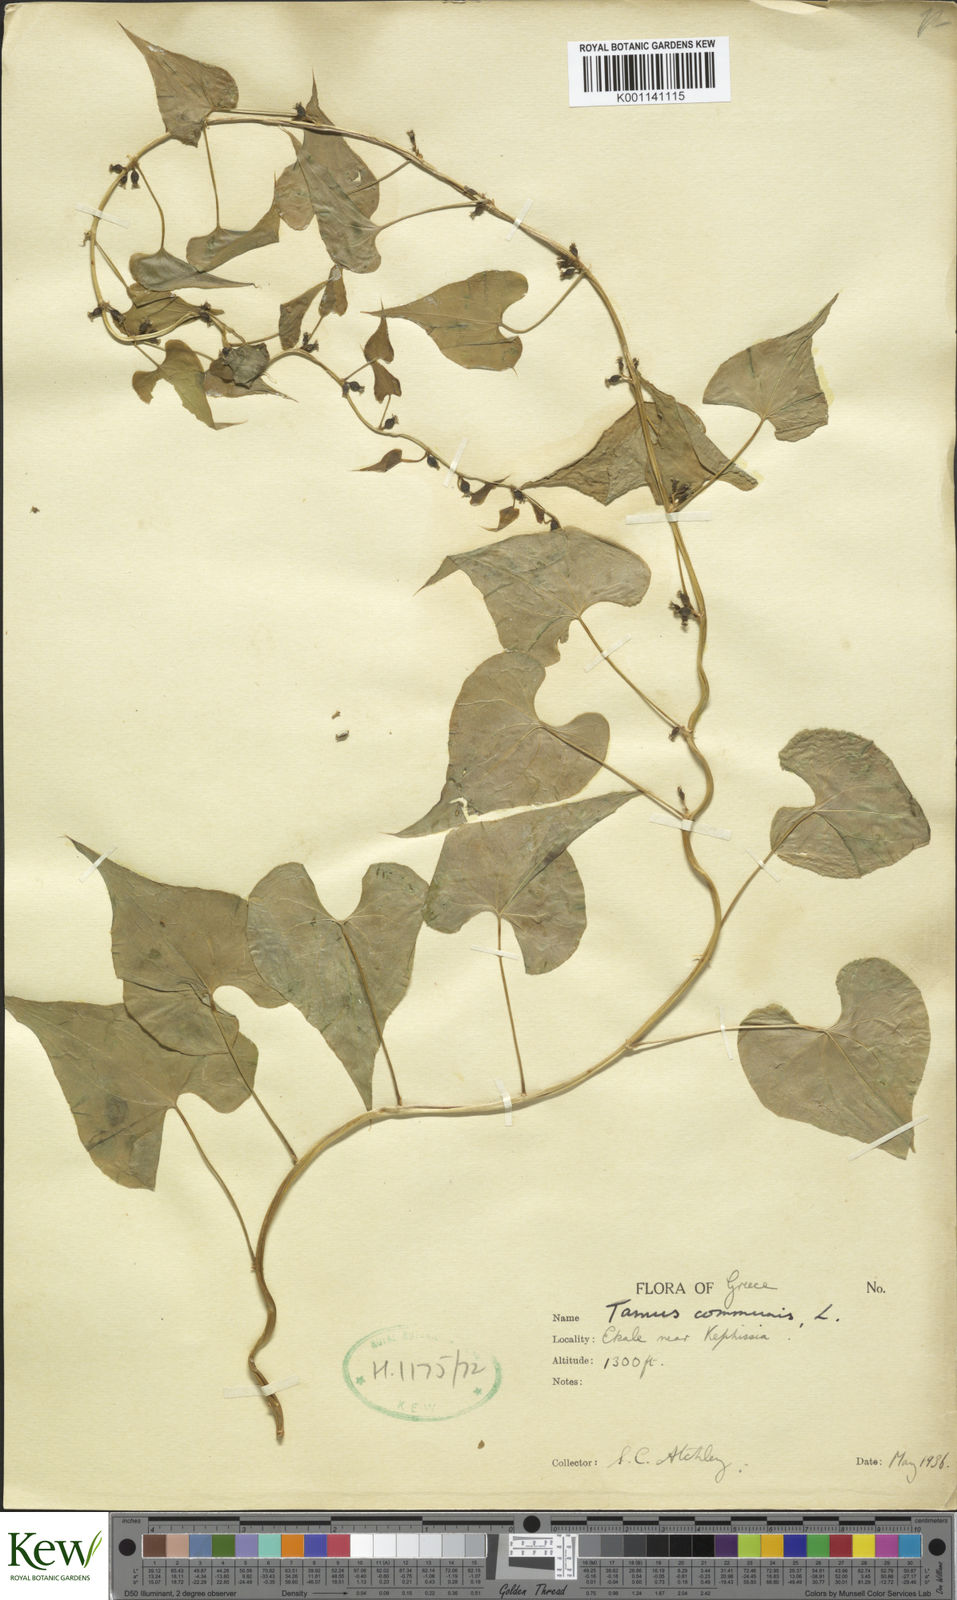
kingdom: Plantae
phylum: Tracheophyta
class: Liliopsida
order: Dioscoreales
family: Dioscoreaceae
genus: Dioscorea
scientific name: Dioscorea communis
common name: Black-bindweed
